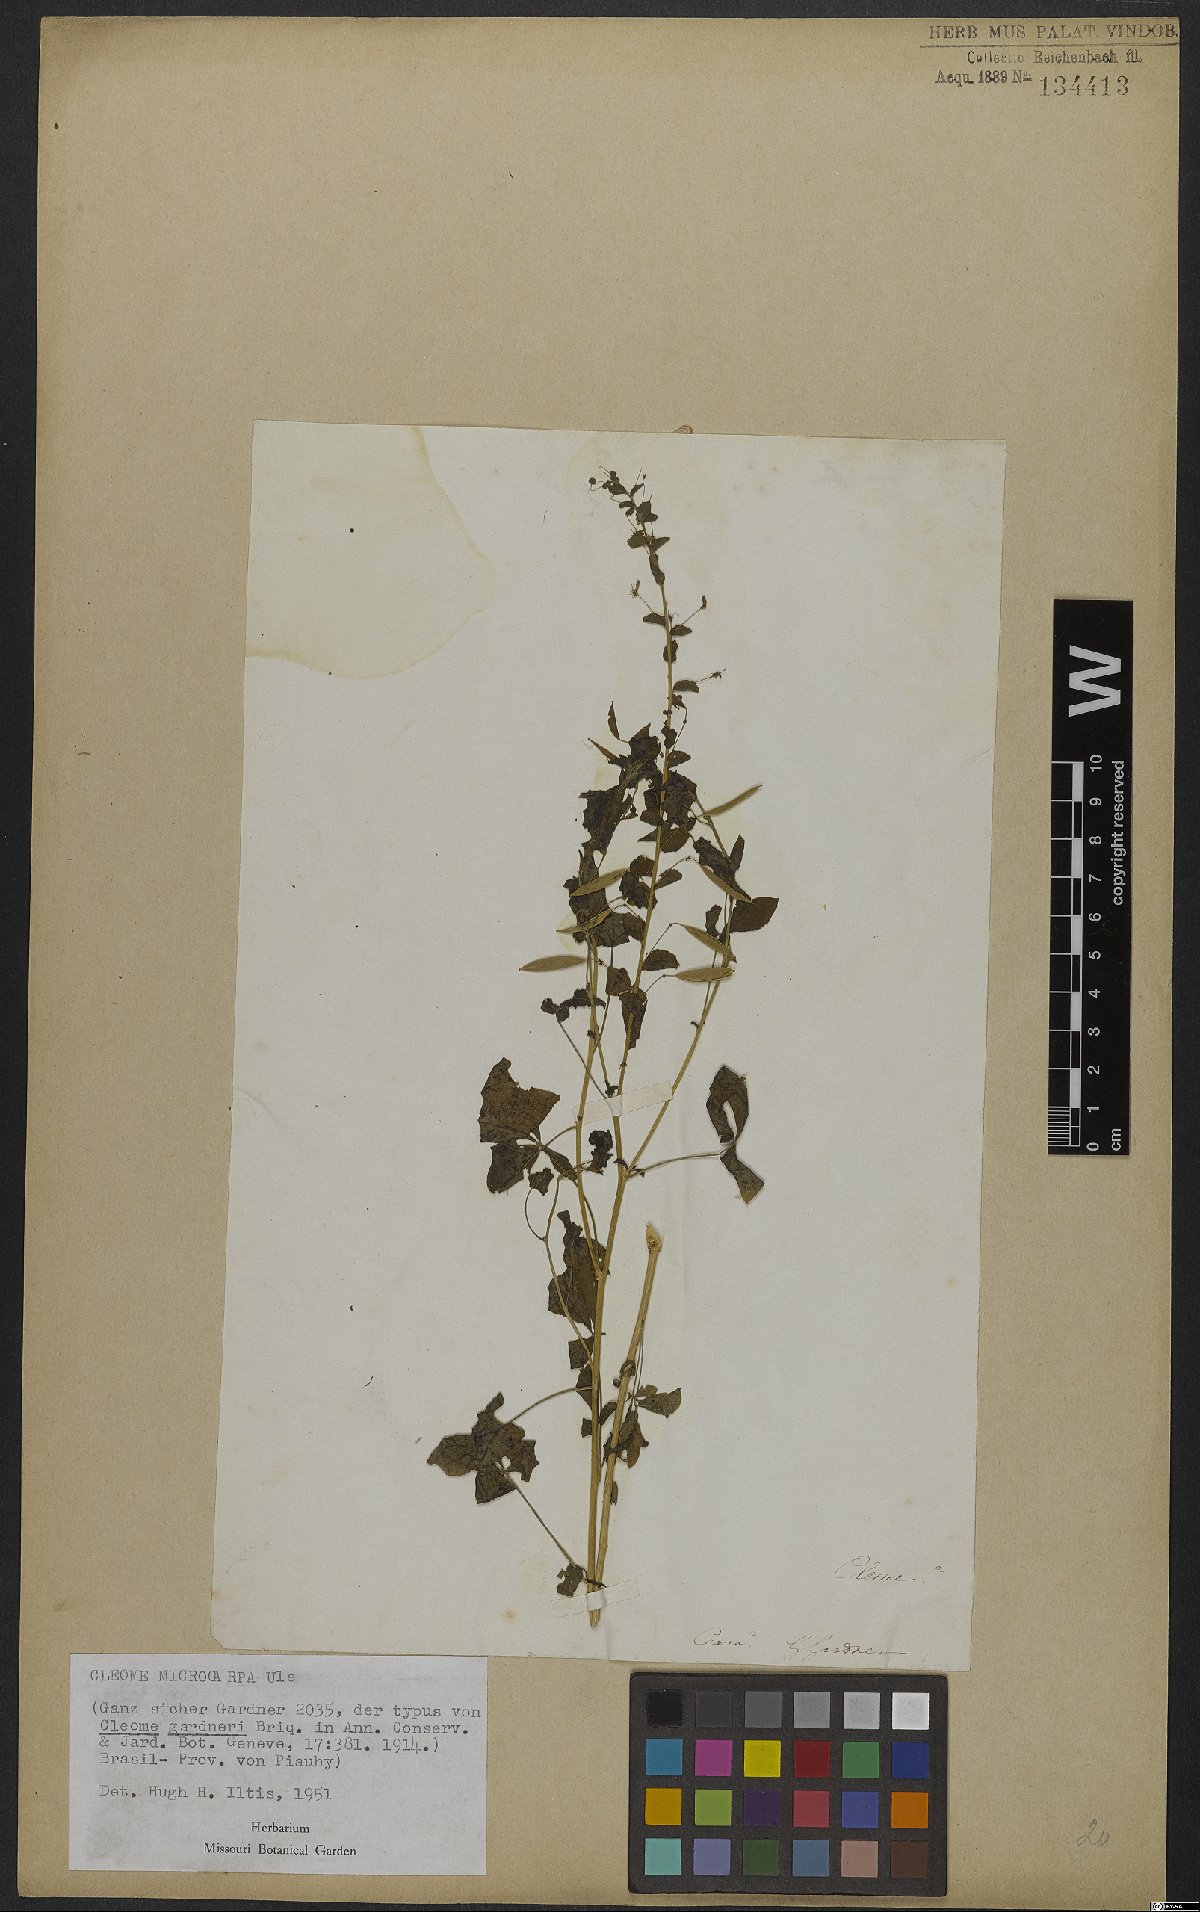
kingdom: Plantae
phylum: Tracheophyta
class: Magnoliopsida
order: Brassicales
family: Cleomaceae
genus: Tarenaya
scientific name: Tarenaya microcarpa
